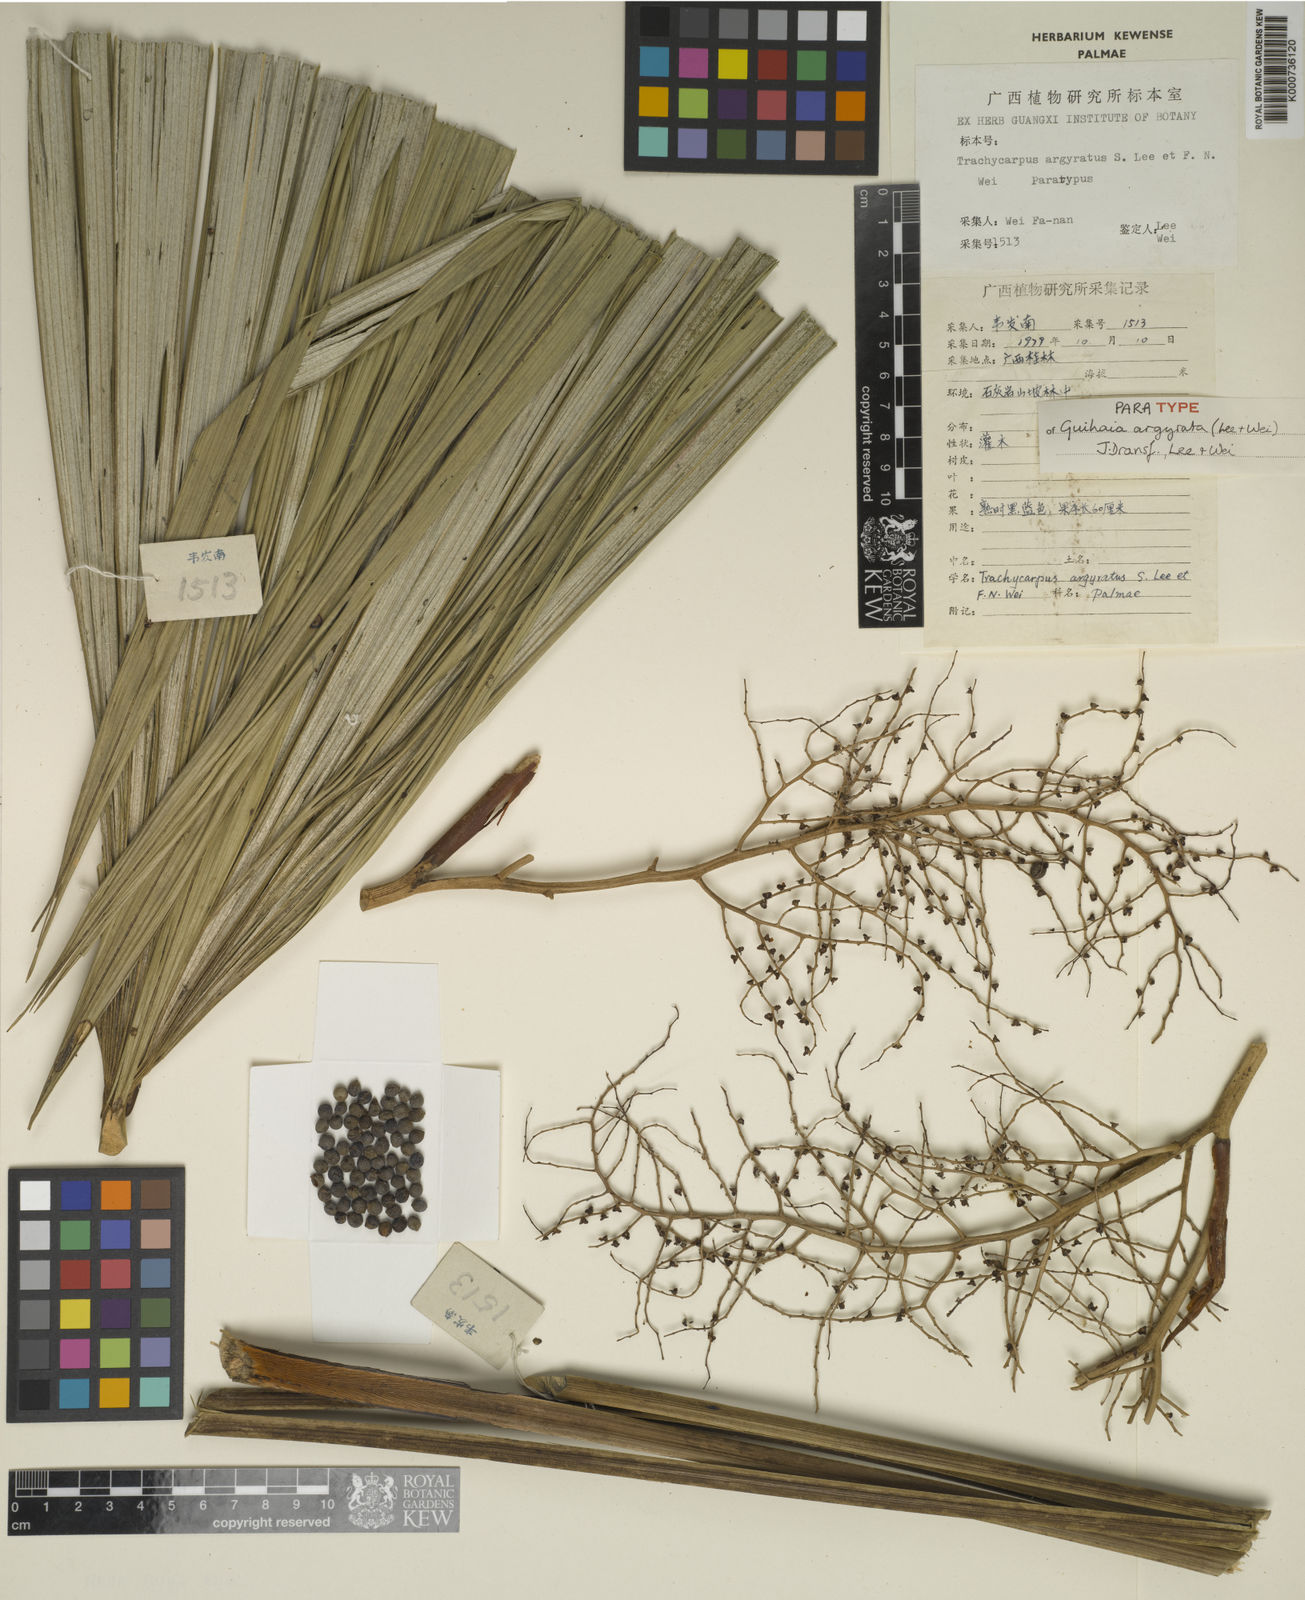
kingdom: Plantae
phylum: Tracheophyta
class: Liliopsida
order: Arecales
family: Arecaceae
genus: Guihaia
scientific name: Guihaia
